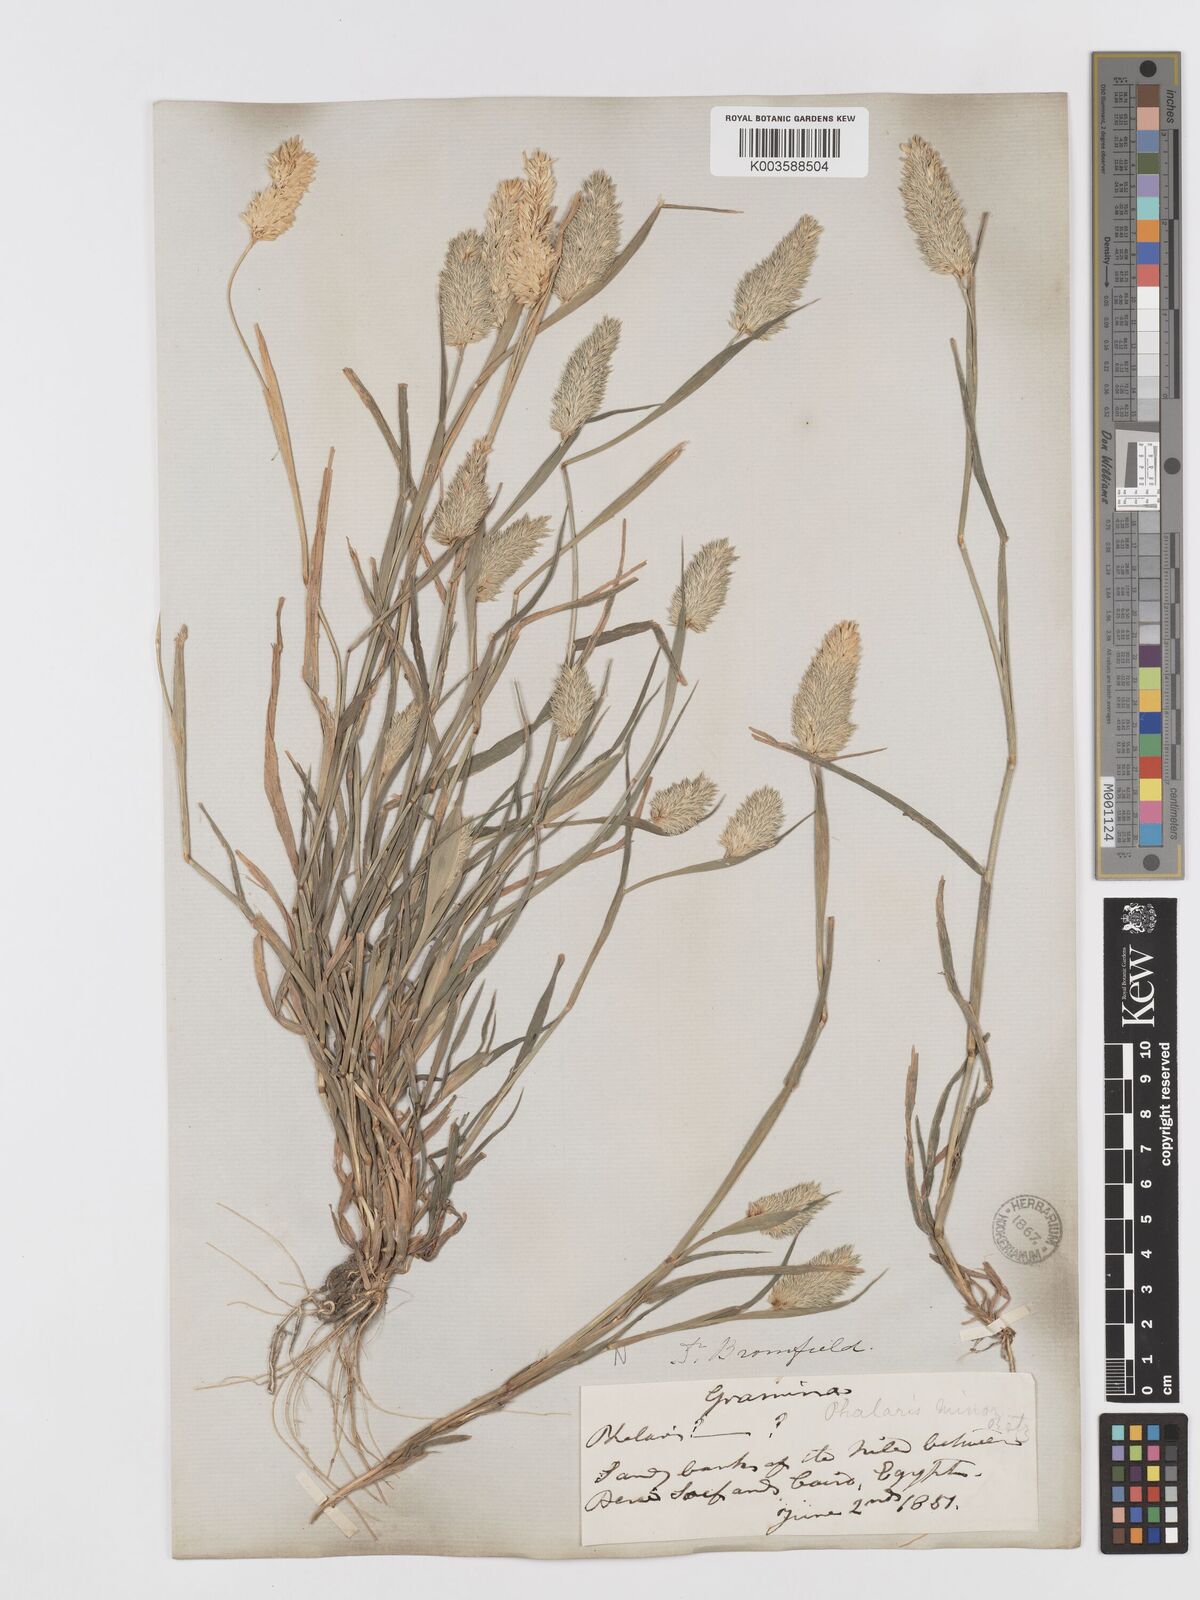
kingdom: Plantae
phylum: Tracheophyta
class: Liliopsida
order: Poales
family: Poaceae
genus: Phalaris
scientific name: Phalaris minor
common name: Littleseed canarygrass
